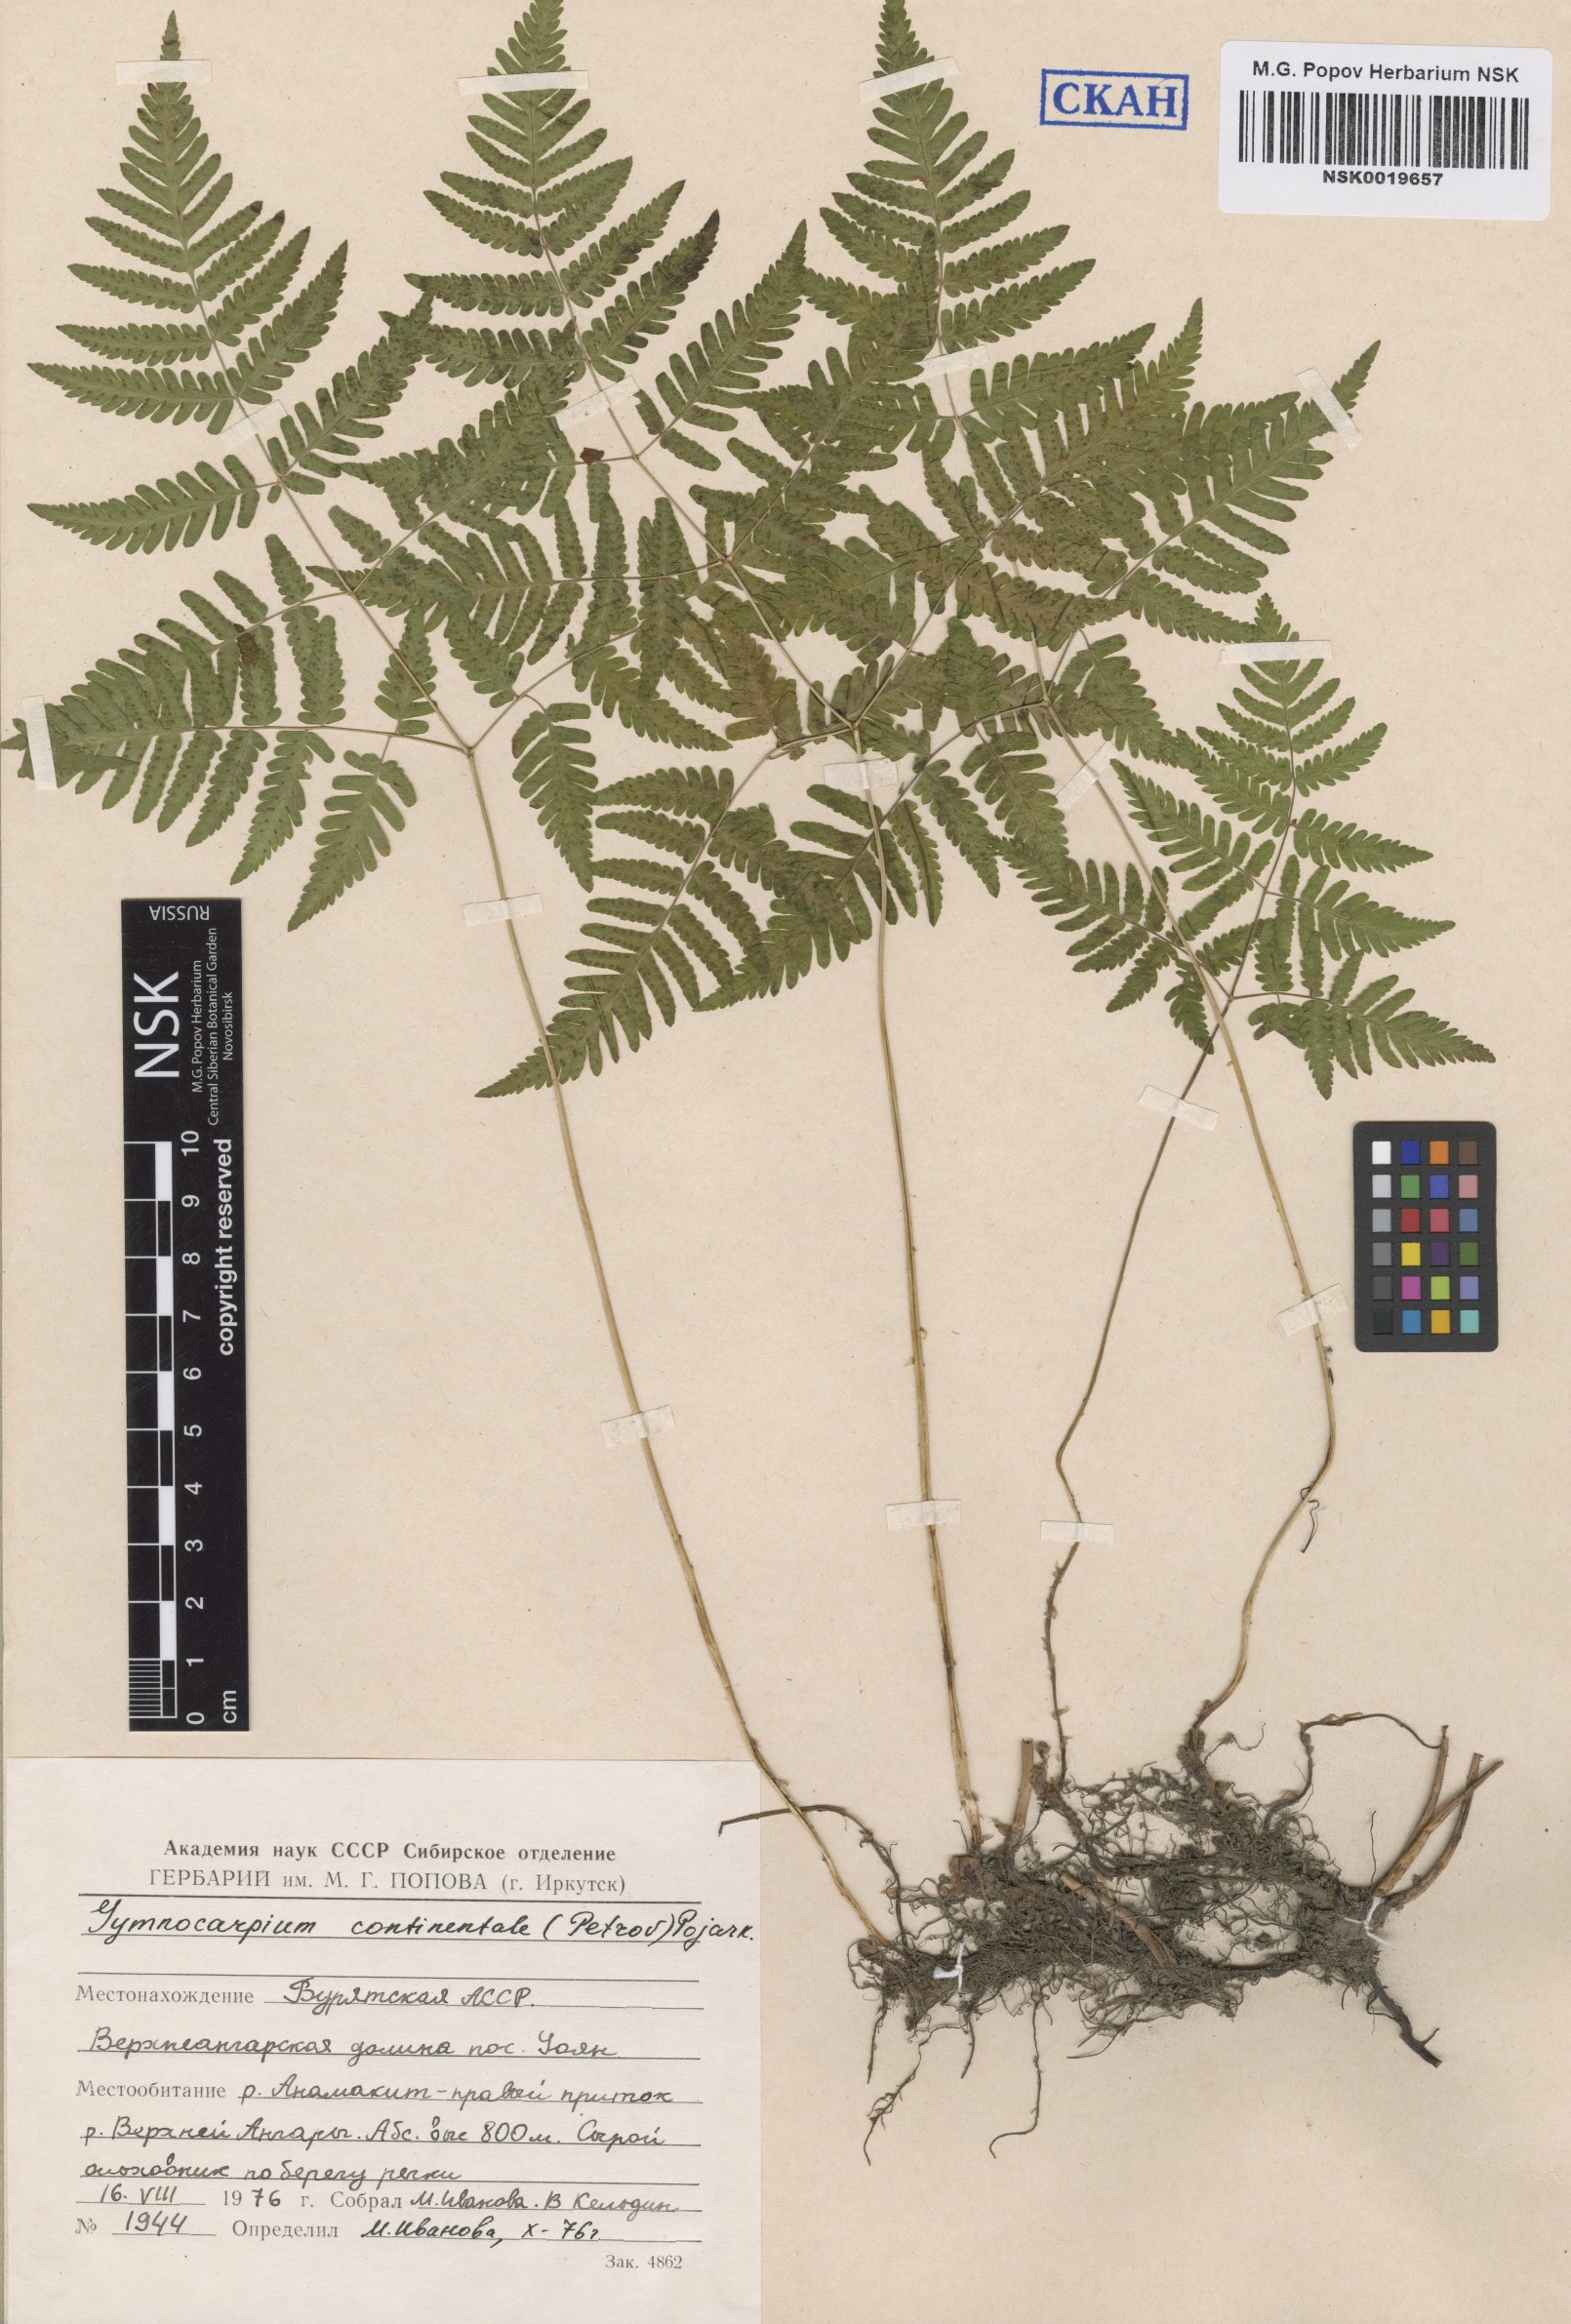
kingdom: Plantae
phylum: Tracheophyta
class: Polypodiopsida
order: Polypodiales
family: Cystopteridaceae
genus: Gymnocarpium
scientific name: Gymnocarpium continentale
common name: Asian oak fern
